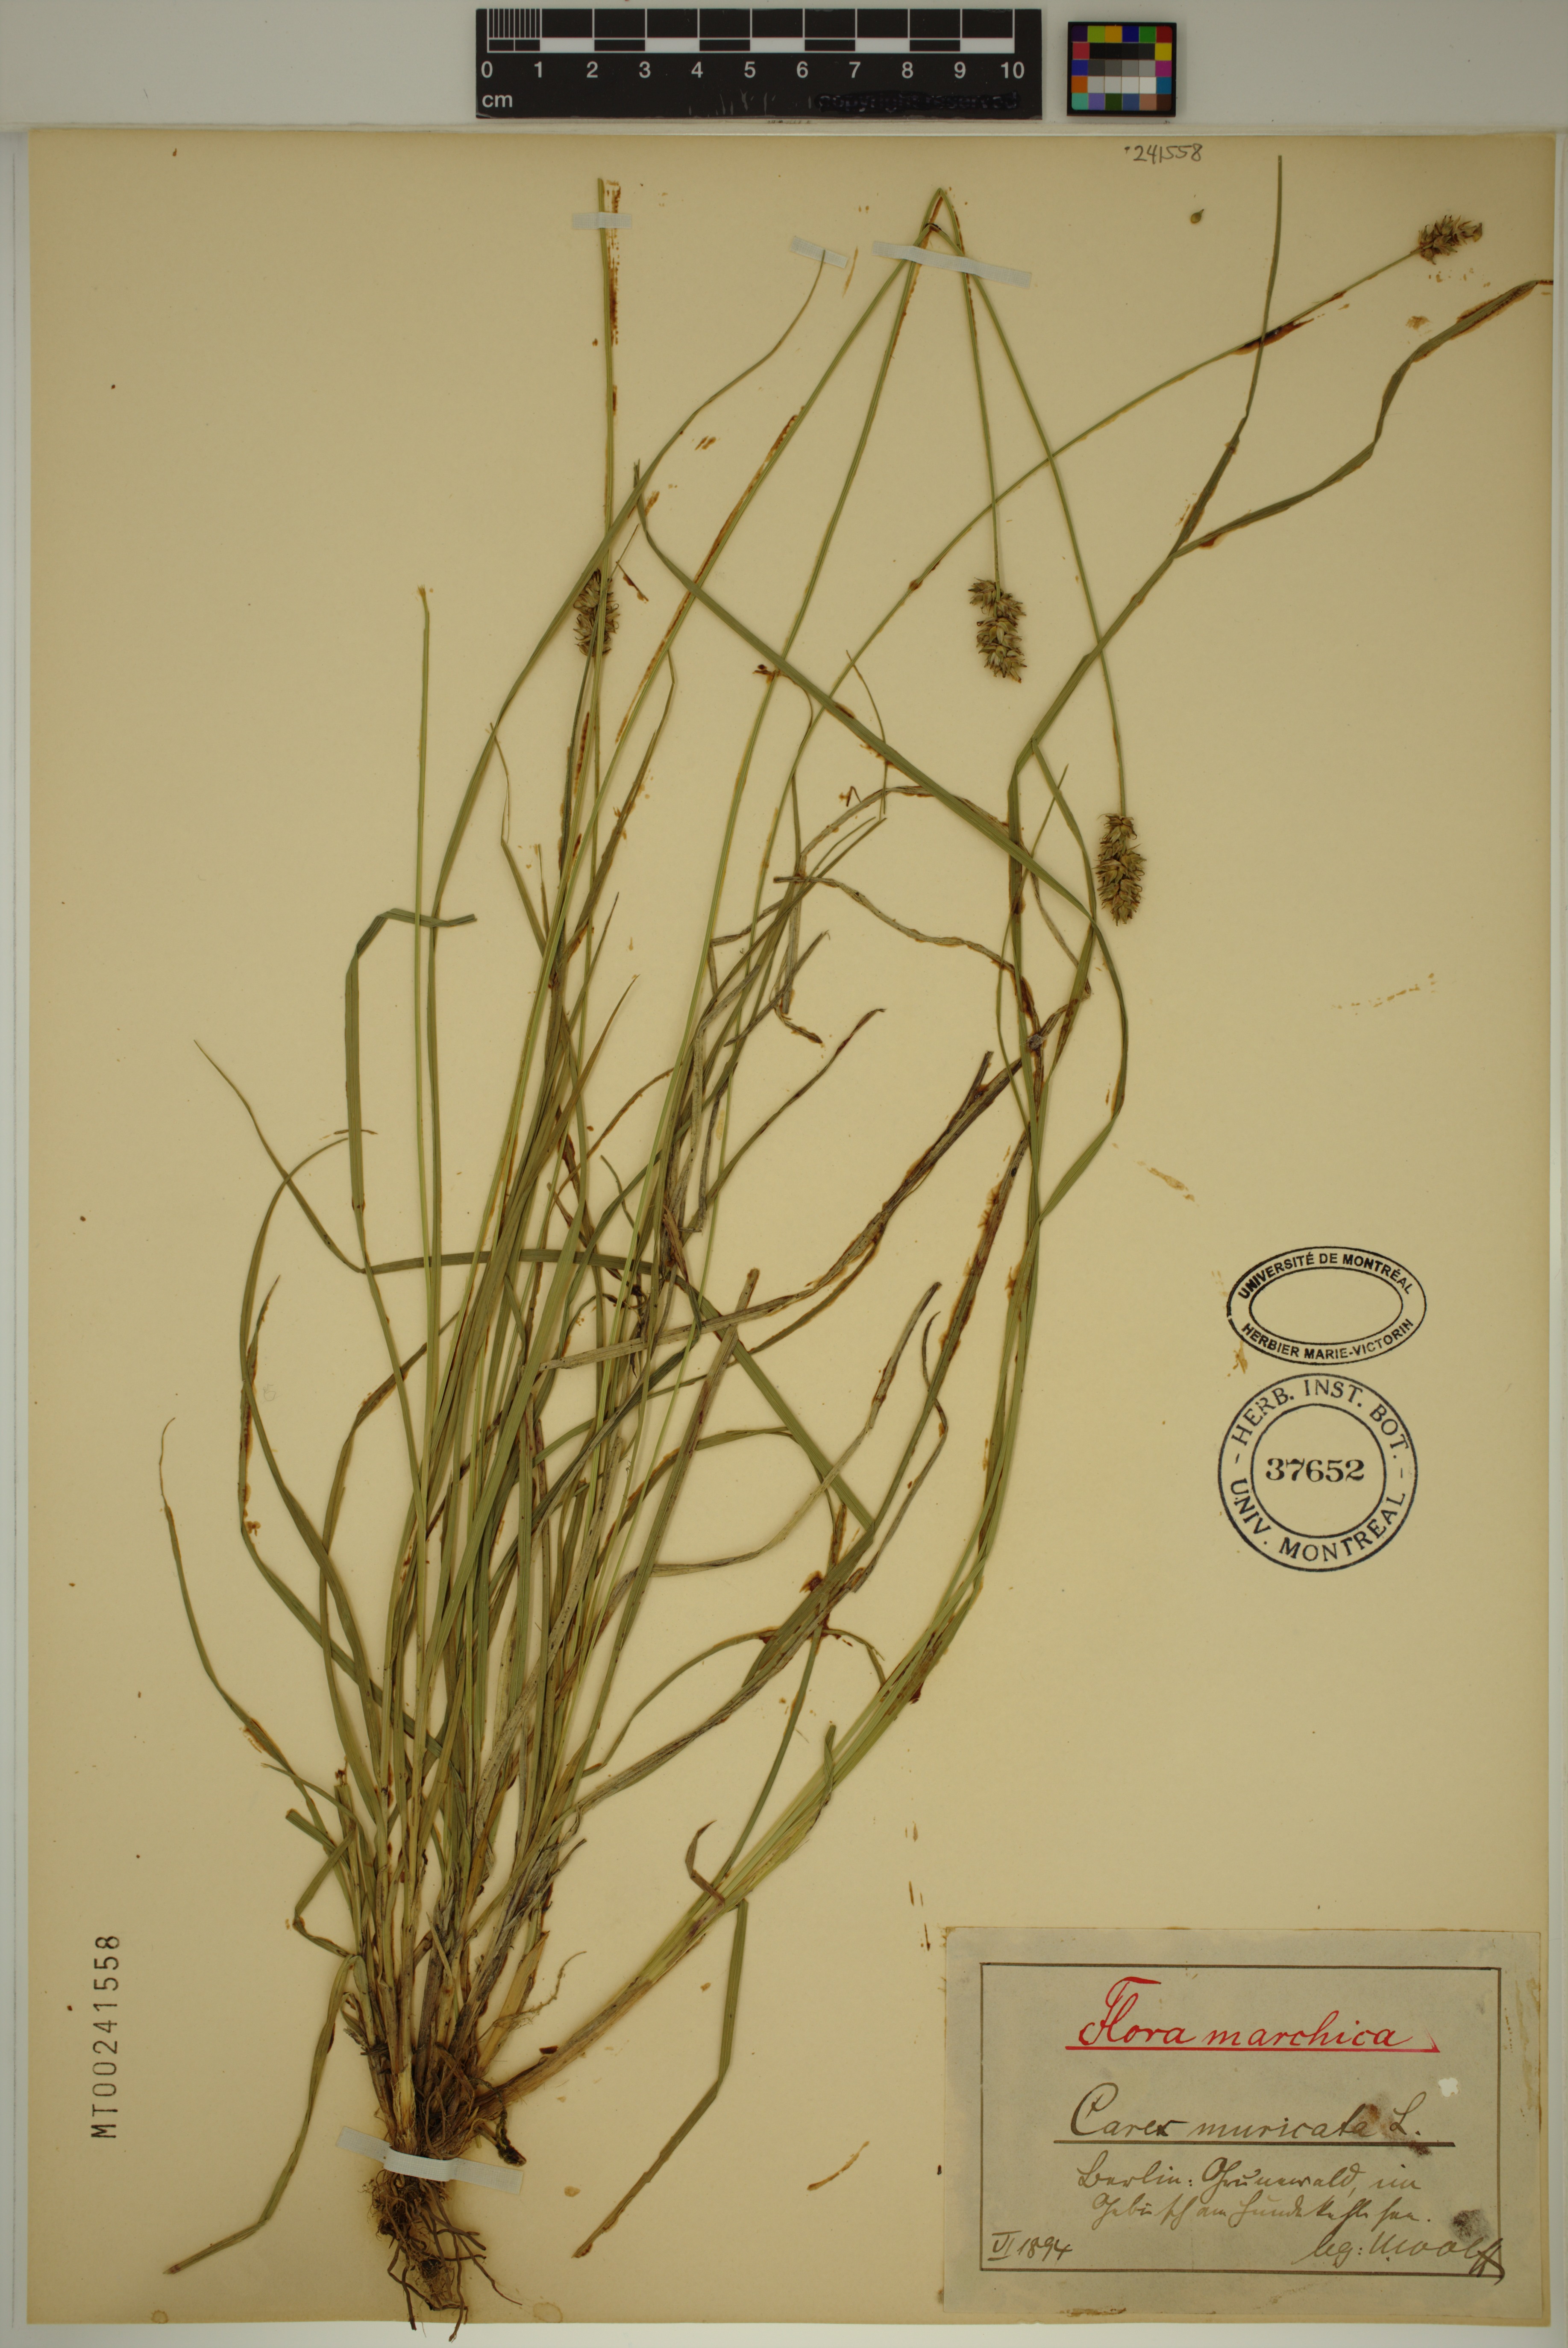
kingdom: Plantae
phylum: Tracheophyta
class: Liliopsida
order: Poales
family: Cyperaceae
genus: Carex
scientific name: Carex muricata
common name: Rough sedge
